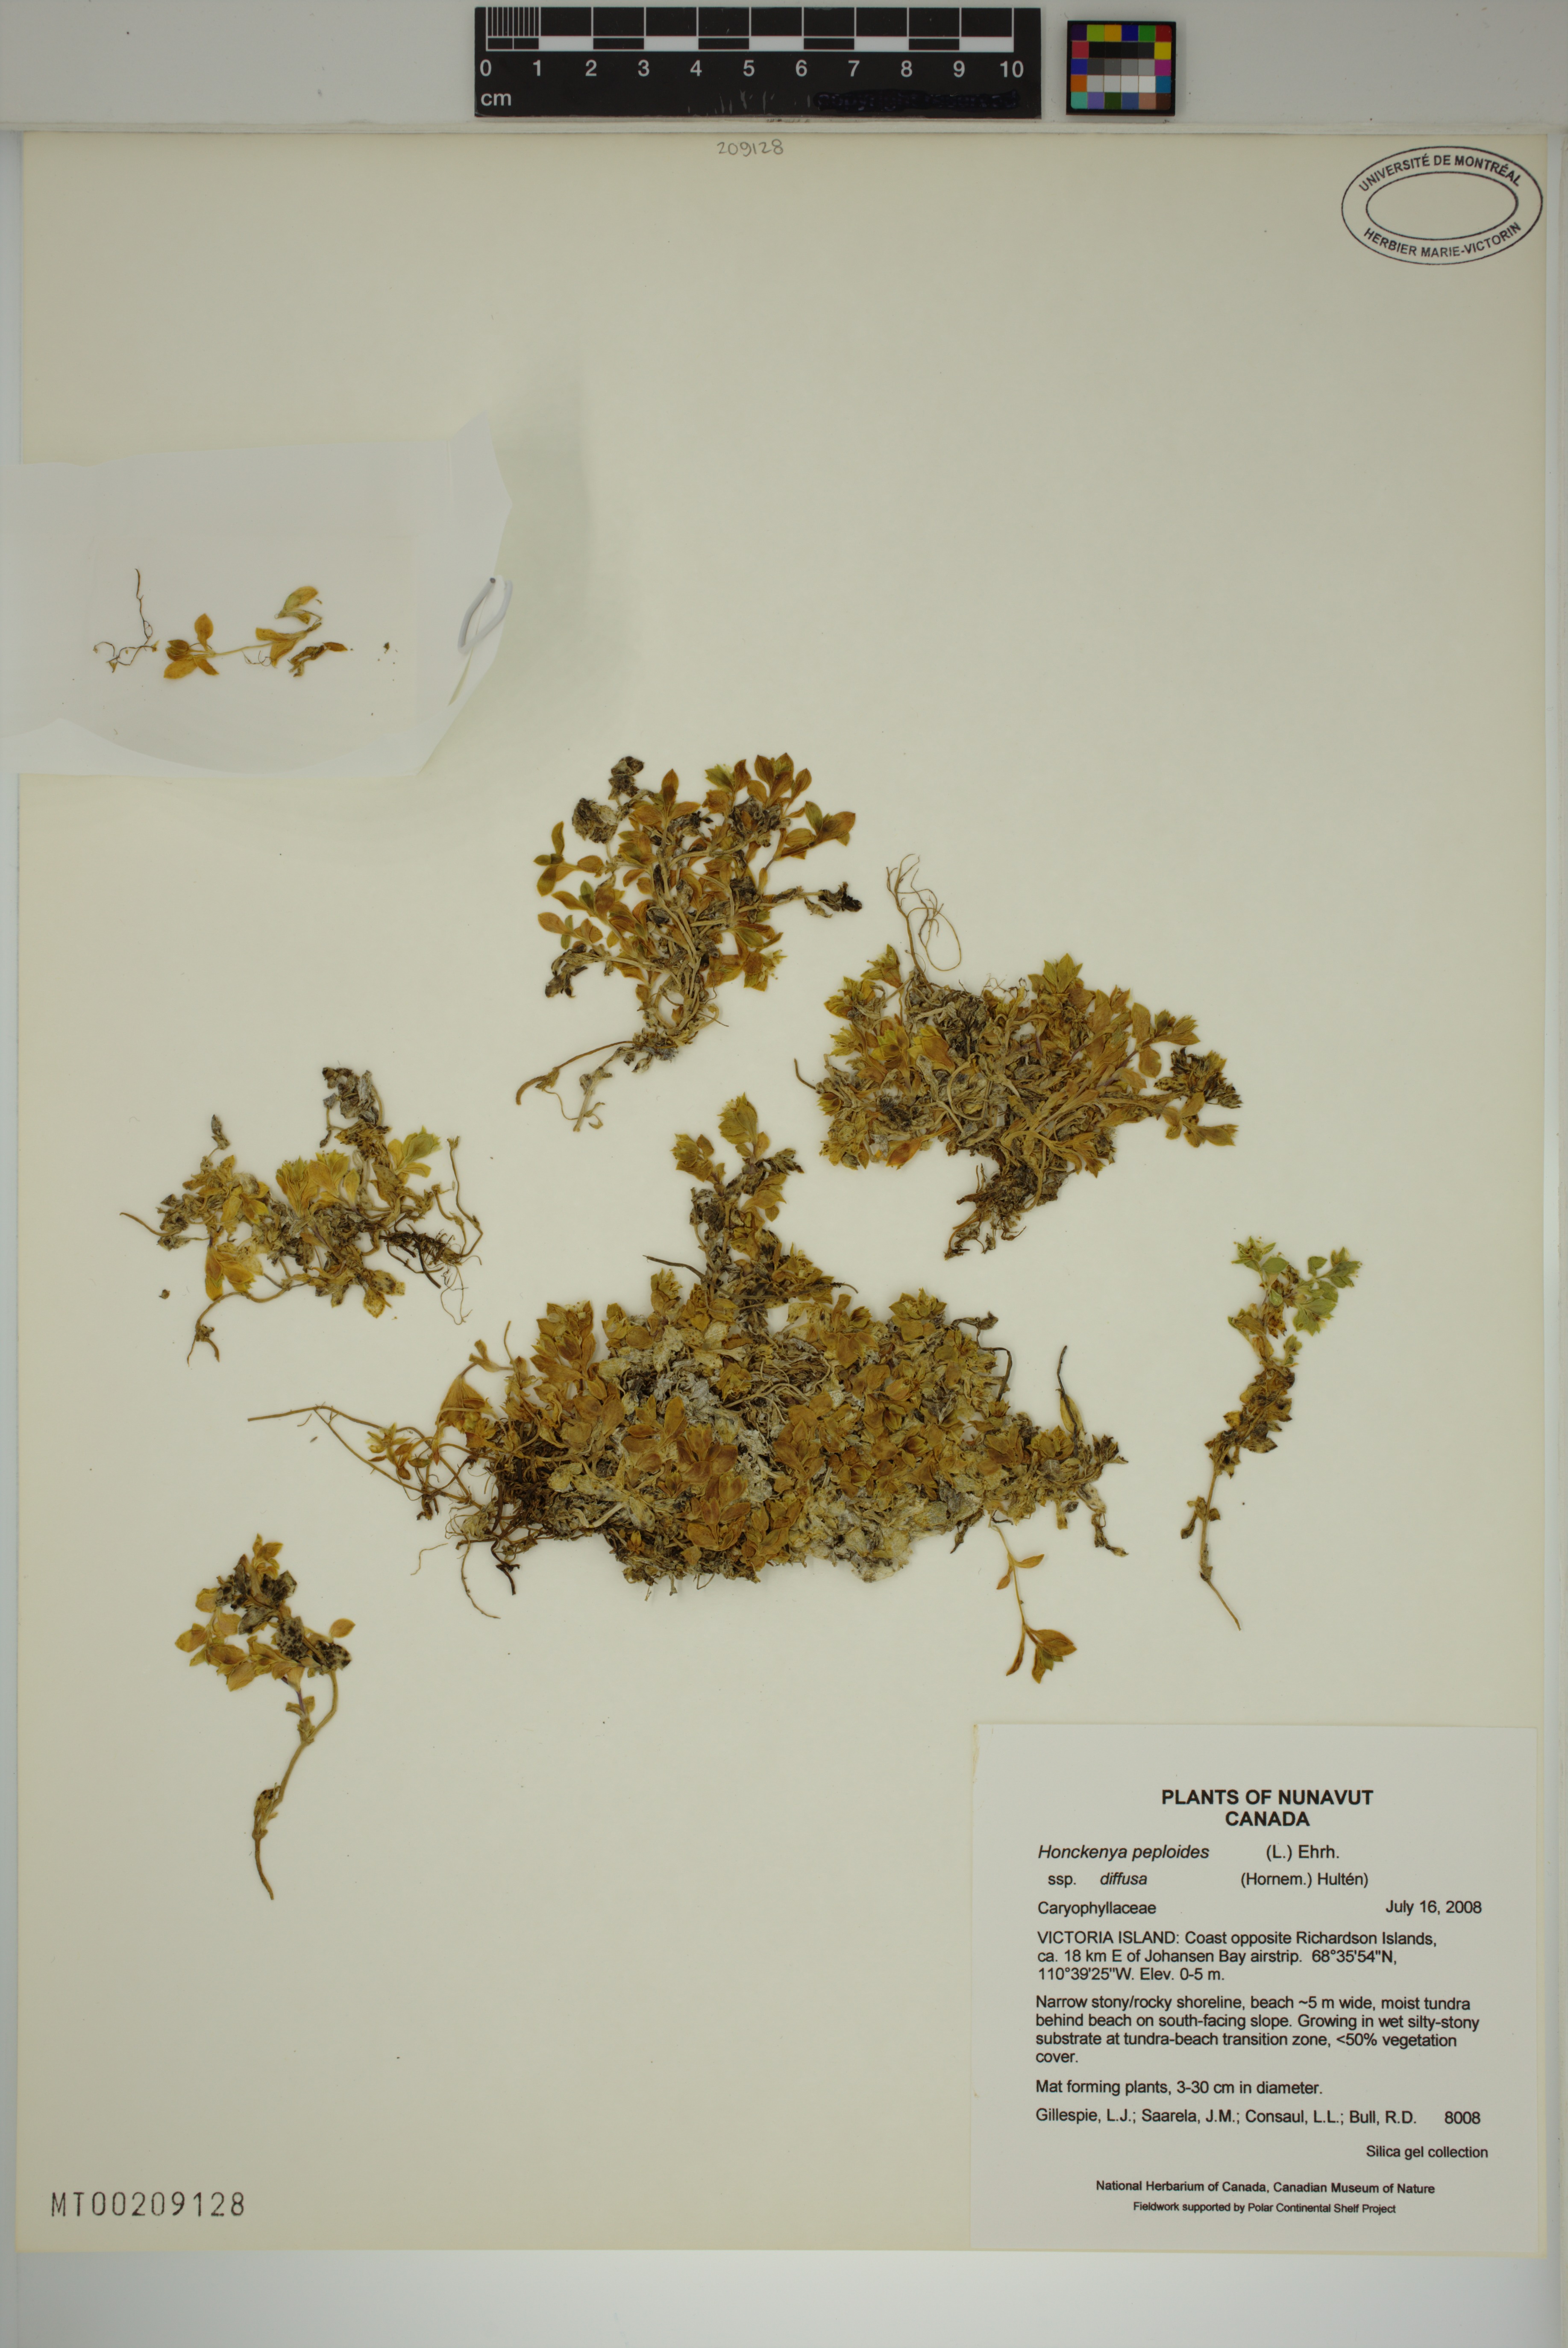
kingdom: Plantae
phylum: Tracheophyta
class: Magnoliopsida
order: Caryophyllales
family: Caryophyllaceae
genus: Honckenya
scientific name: Honckenya peploides
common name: Sea sandwort
